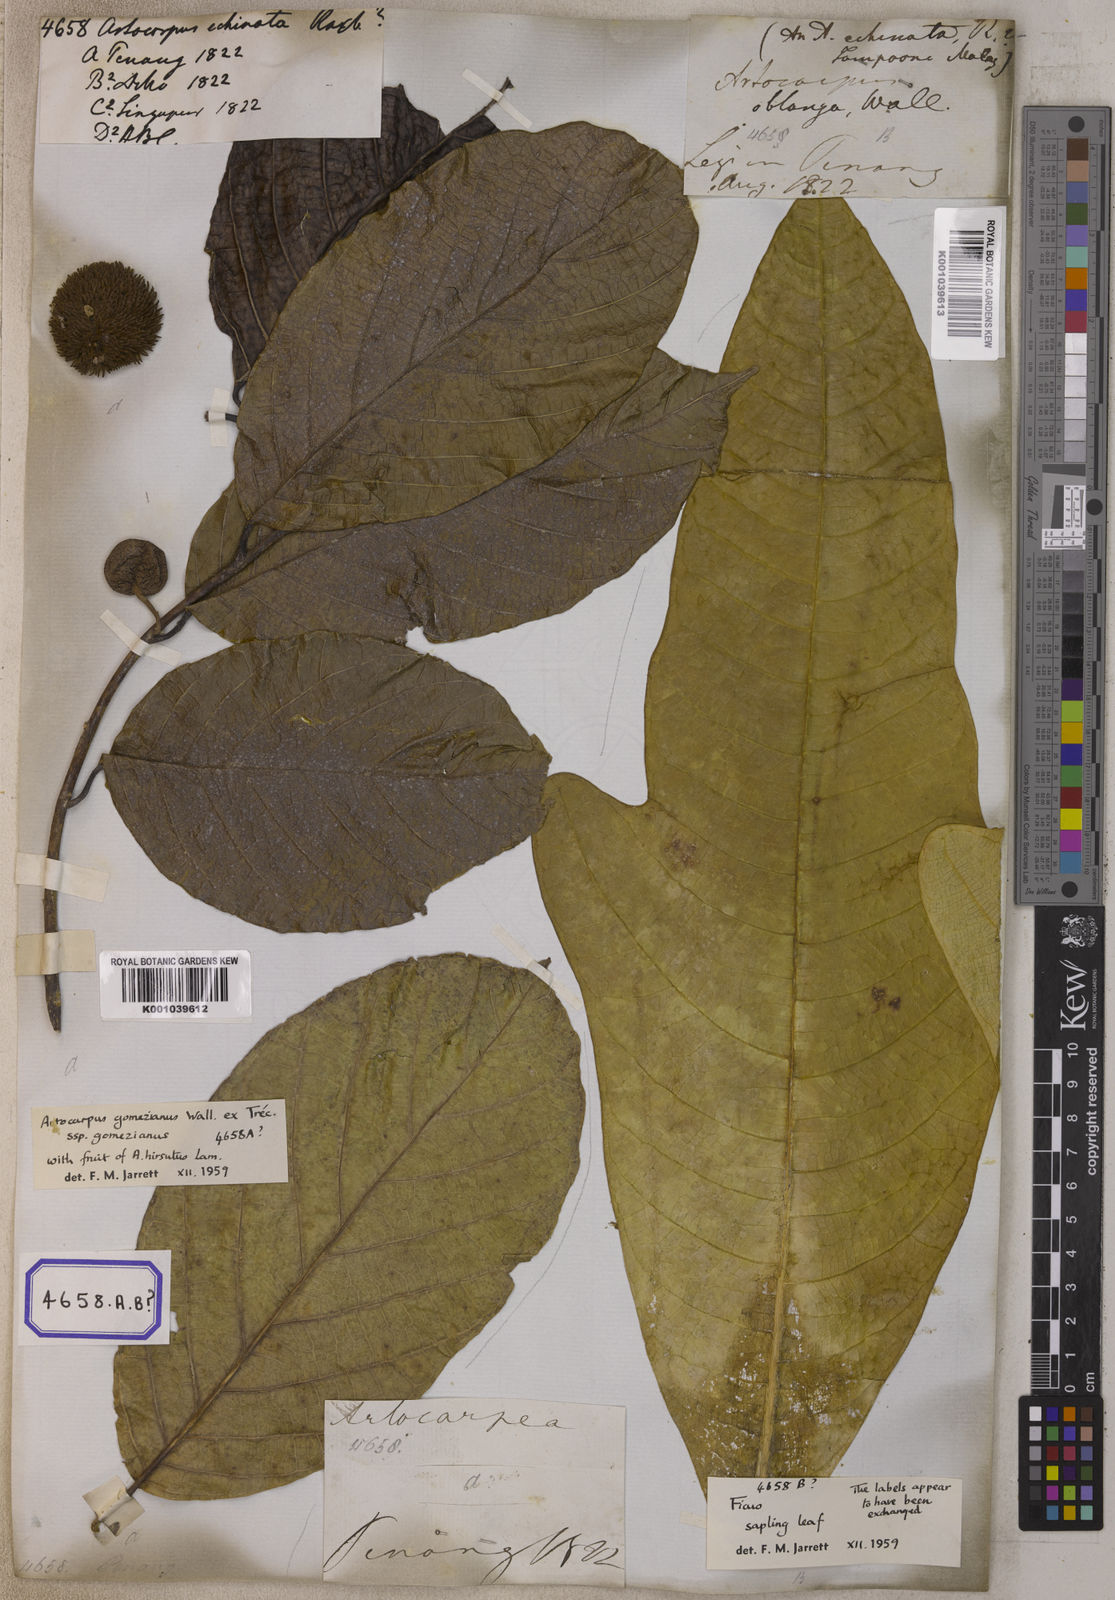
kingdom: Plantae
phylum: Tracheophyta
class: Magnoliopsida
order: Rosales
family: Moraceae
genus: Artocarpus
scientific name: Artocarpus rigidus
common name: Monkey-jack
